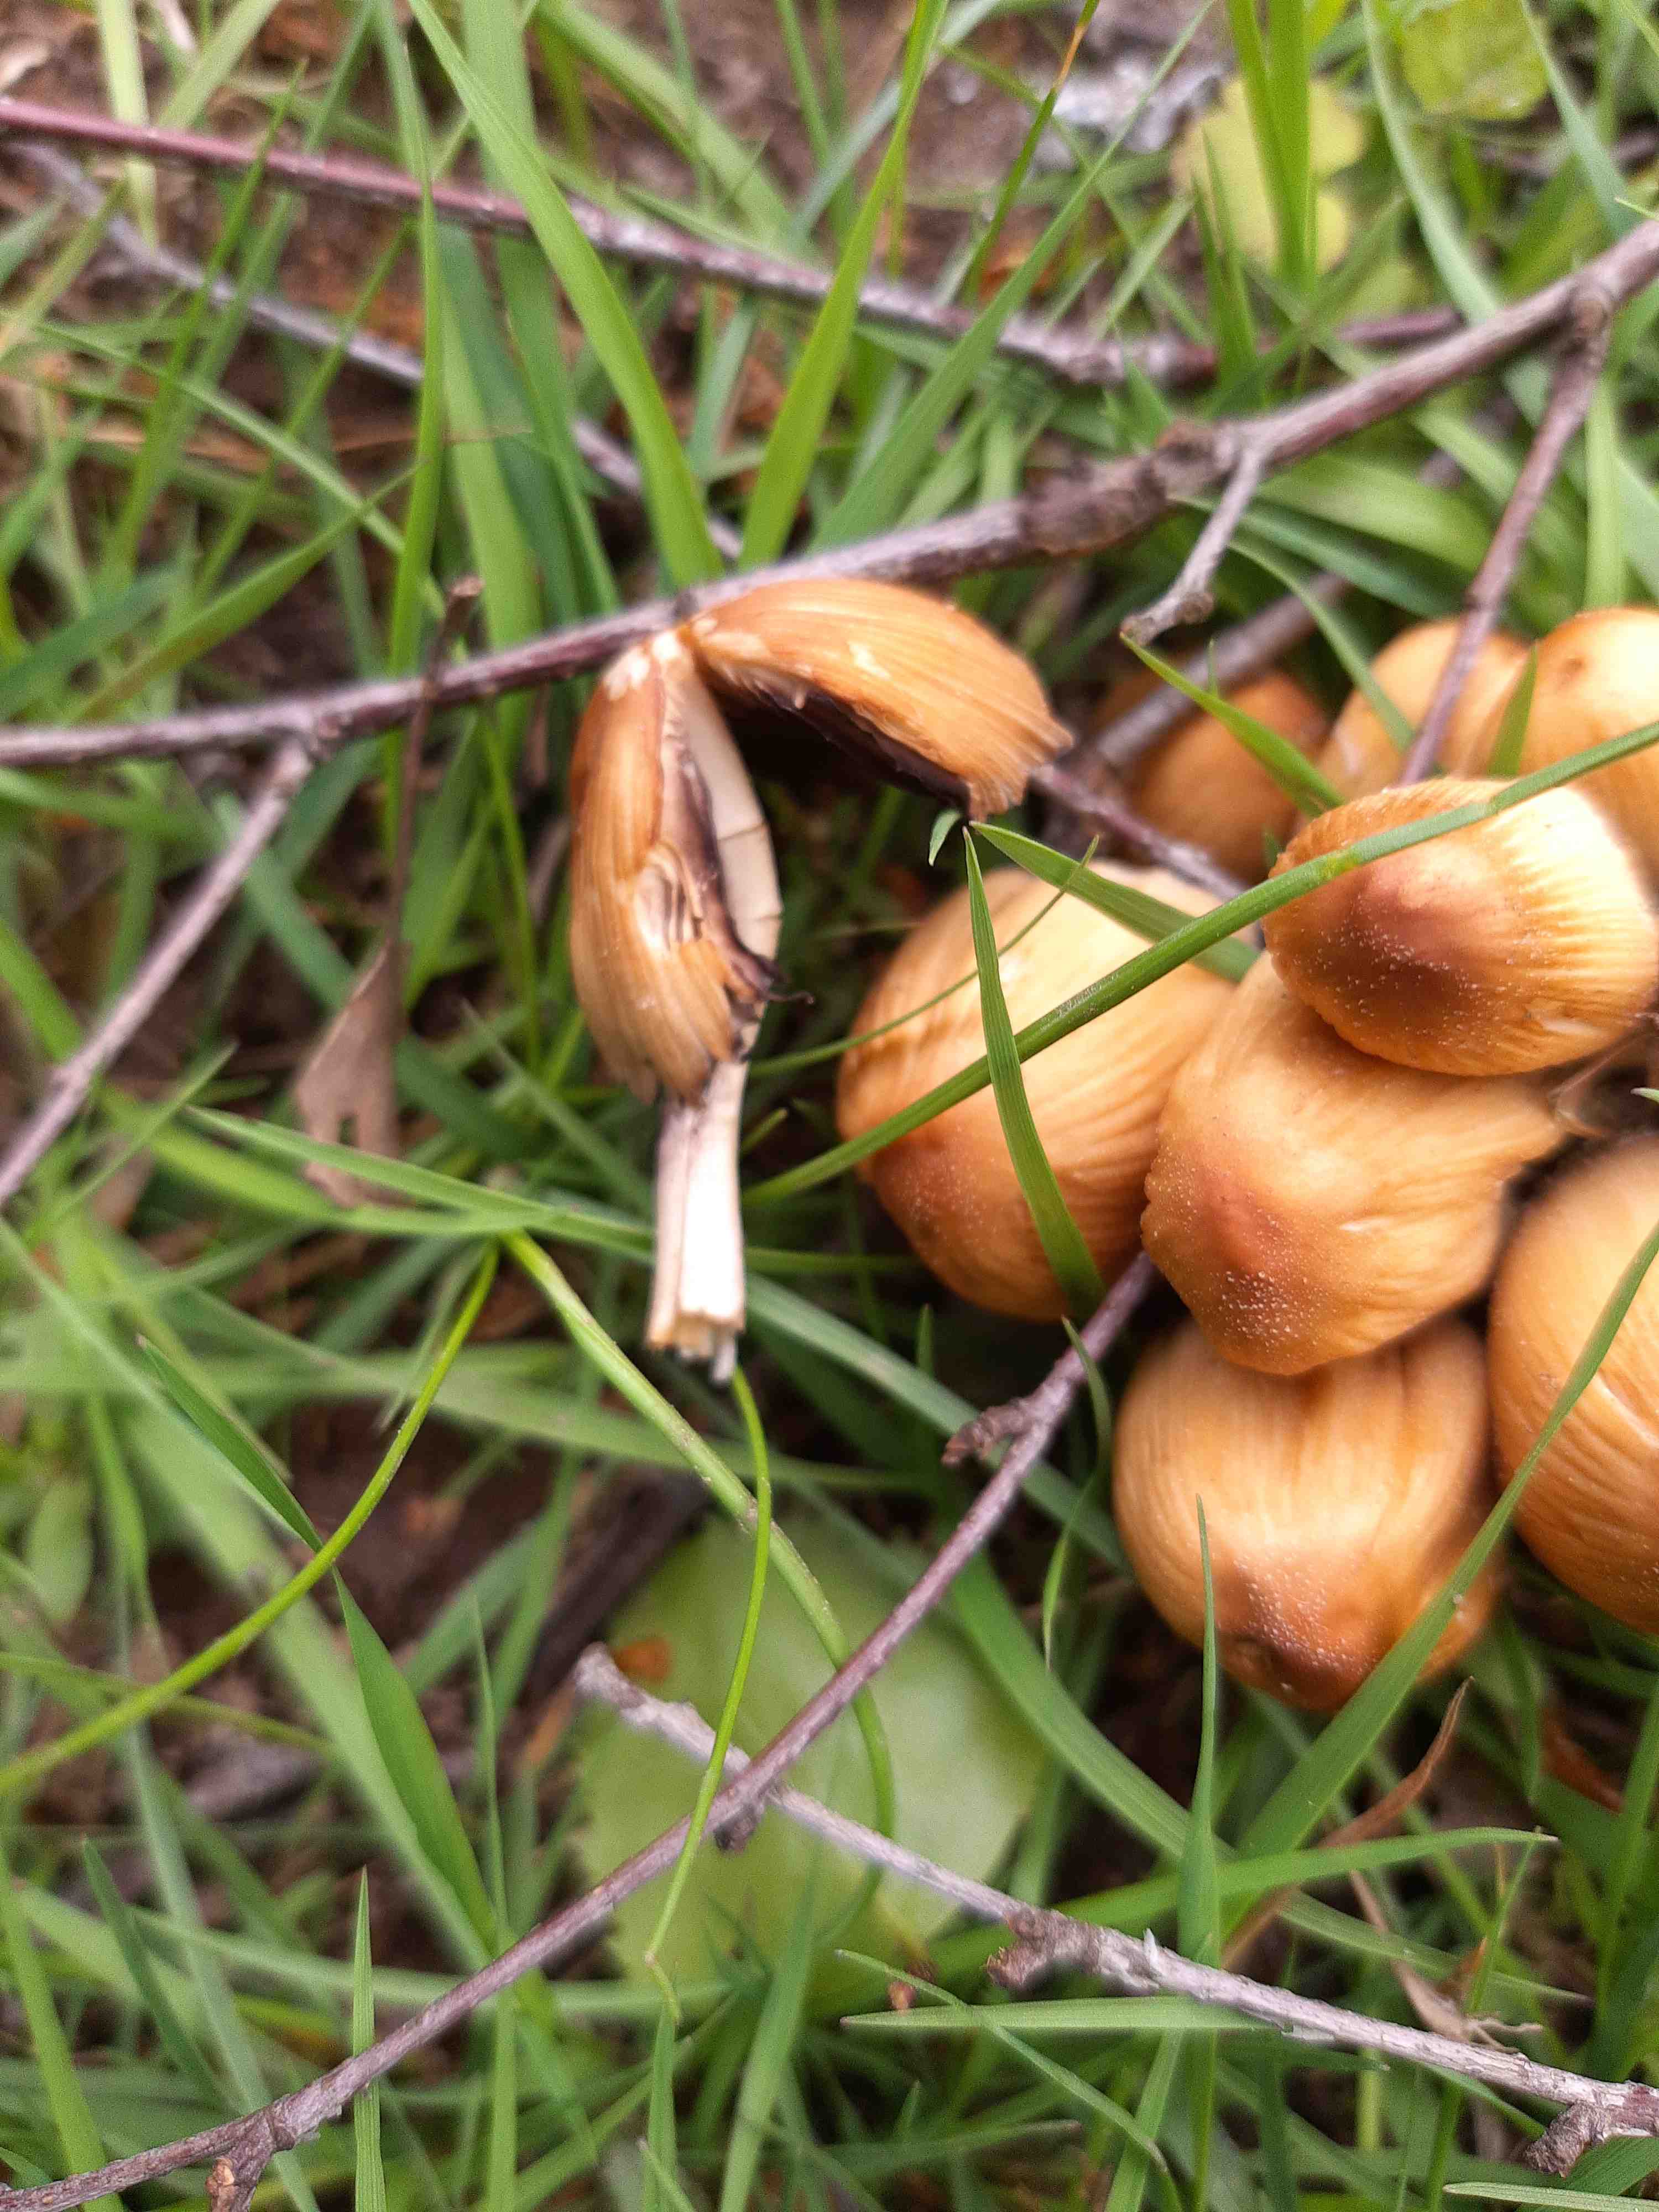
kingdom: Fungi
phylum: Basidiomycota
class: Agaricomycetes
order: Agaricales
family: Psathyrellaceae
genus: Coprinellus
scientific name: Coprinellus micaceus
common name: glimmer-blækhat
